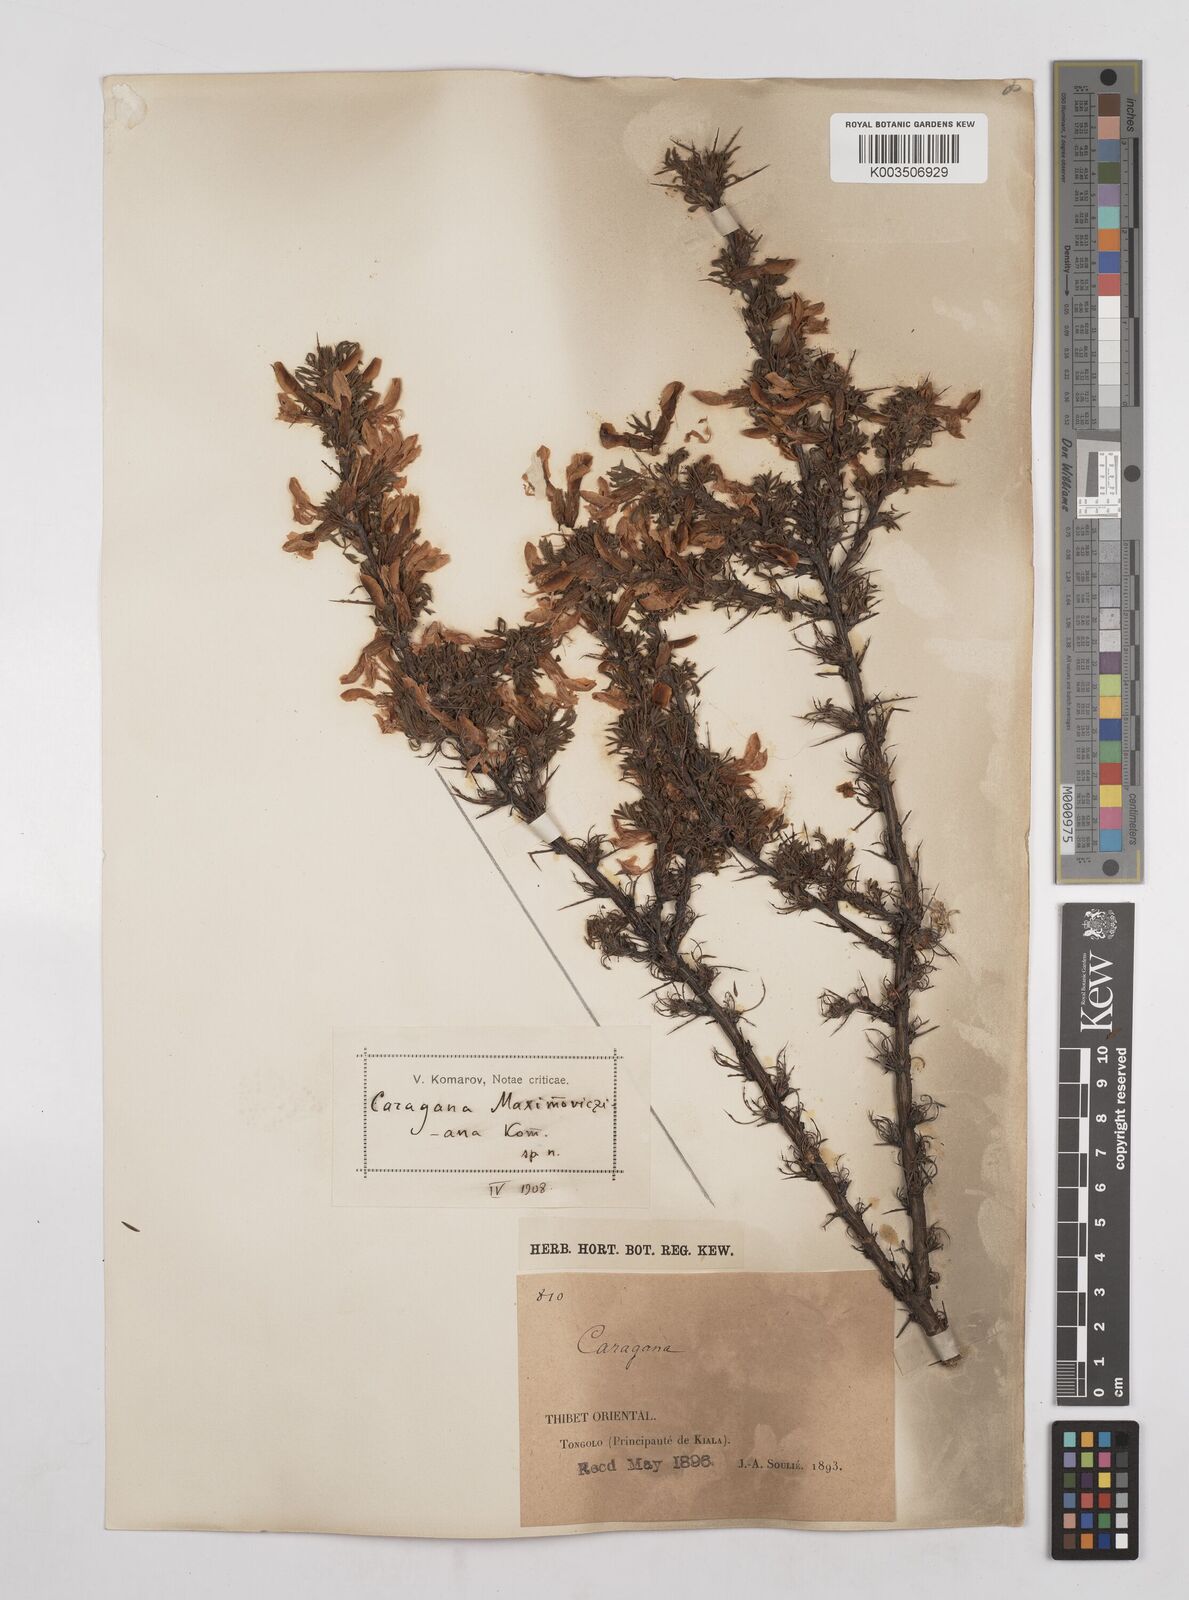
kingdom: Plantae
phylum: Tracheophyta
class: Magnoliopsida
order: Fabales
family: Fabaceae
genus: Caragana
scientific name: Caragana erinacea
